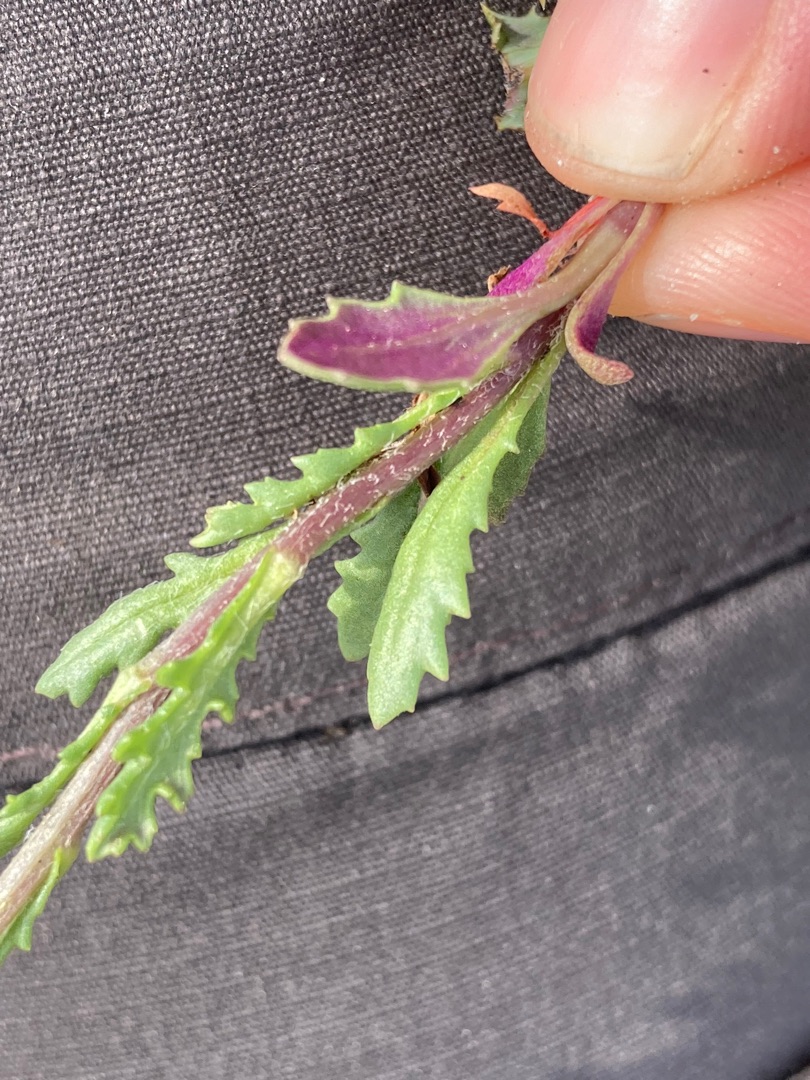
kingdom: Plantae
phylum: Tracheophyta
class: Magnoliopsida
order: Asterales
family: Asteraceae
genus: Senecio
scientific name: Senecio vulgaris
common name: Almindelig brandbæger
